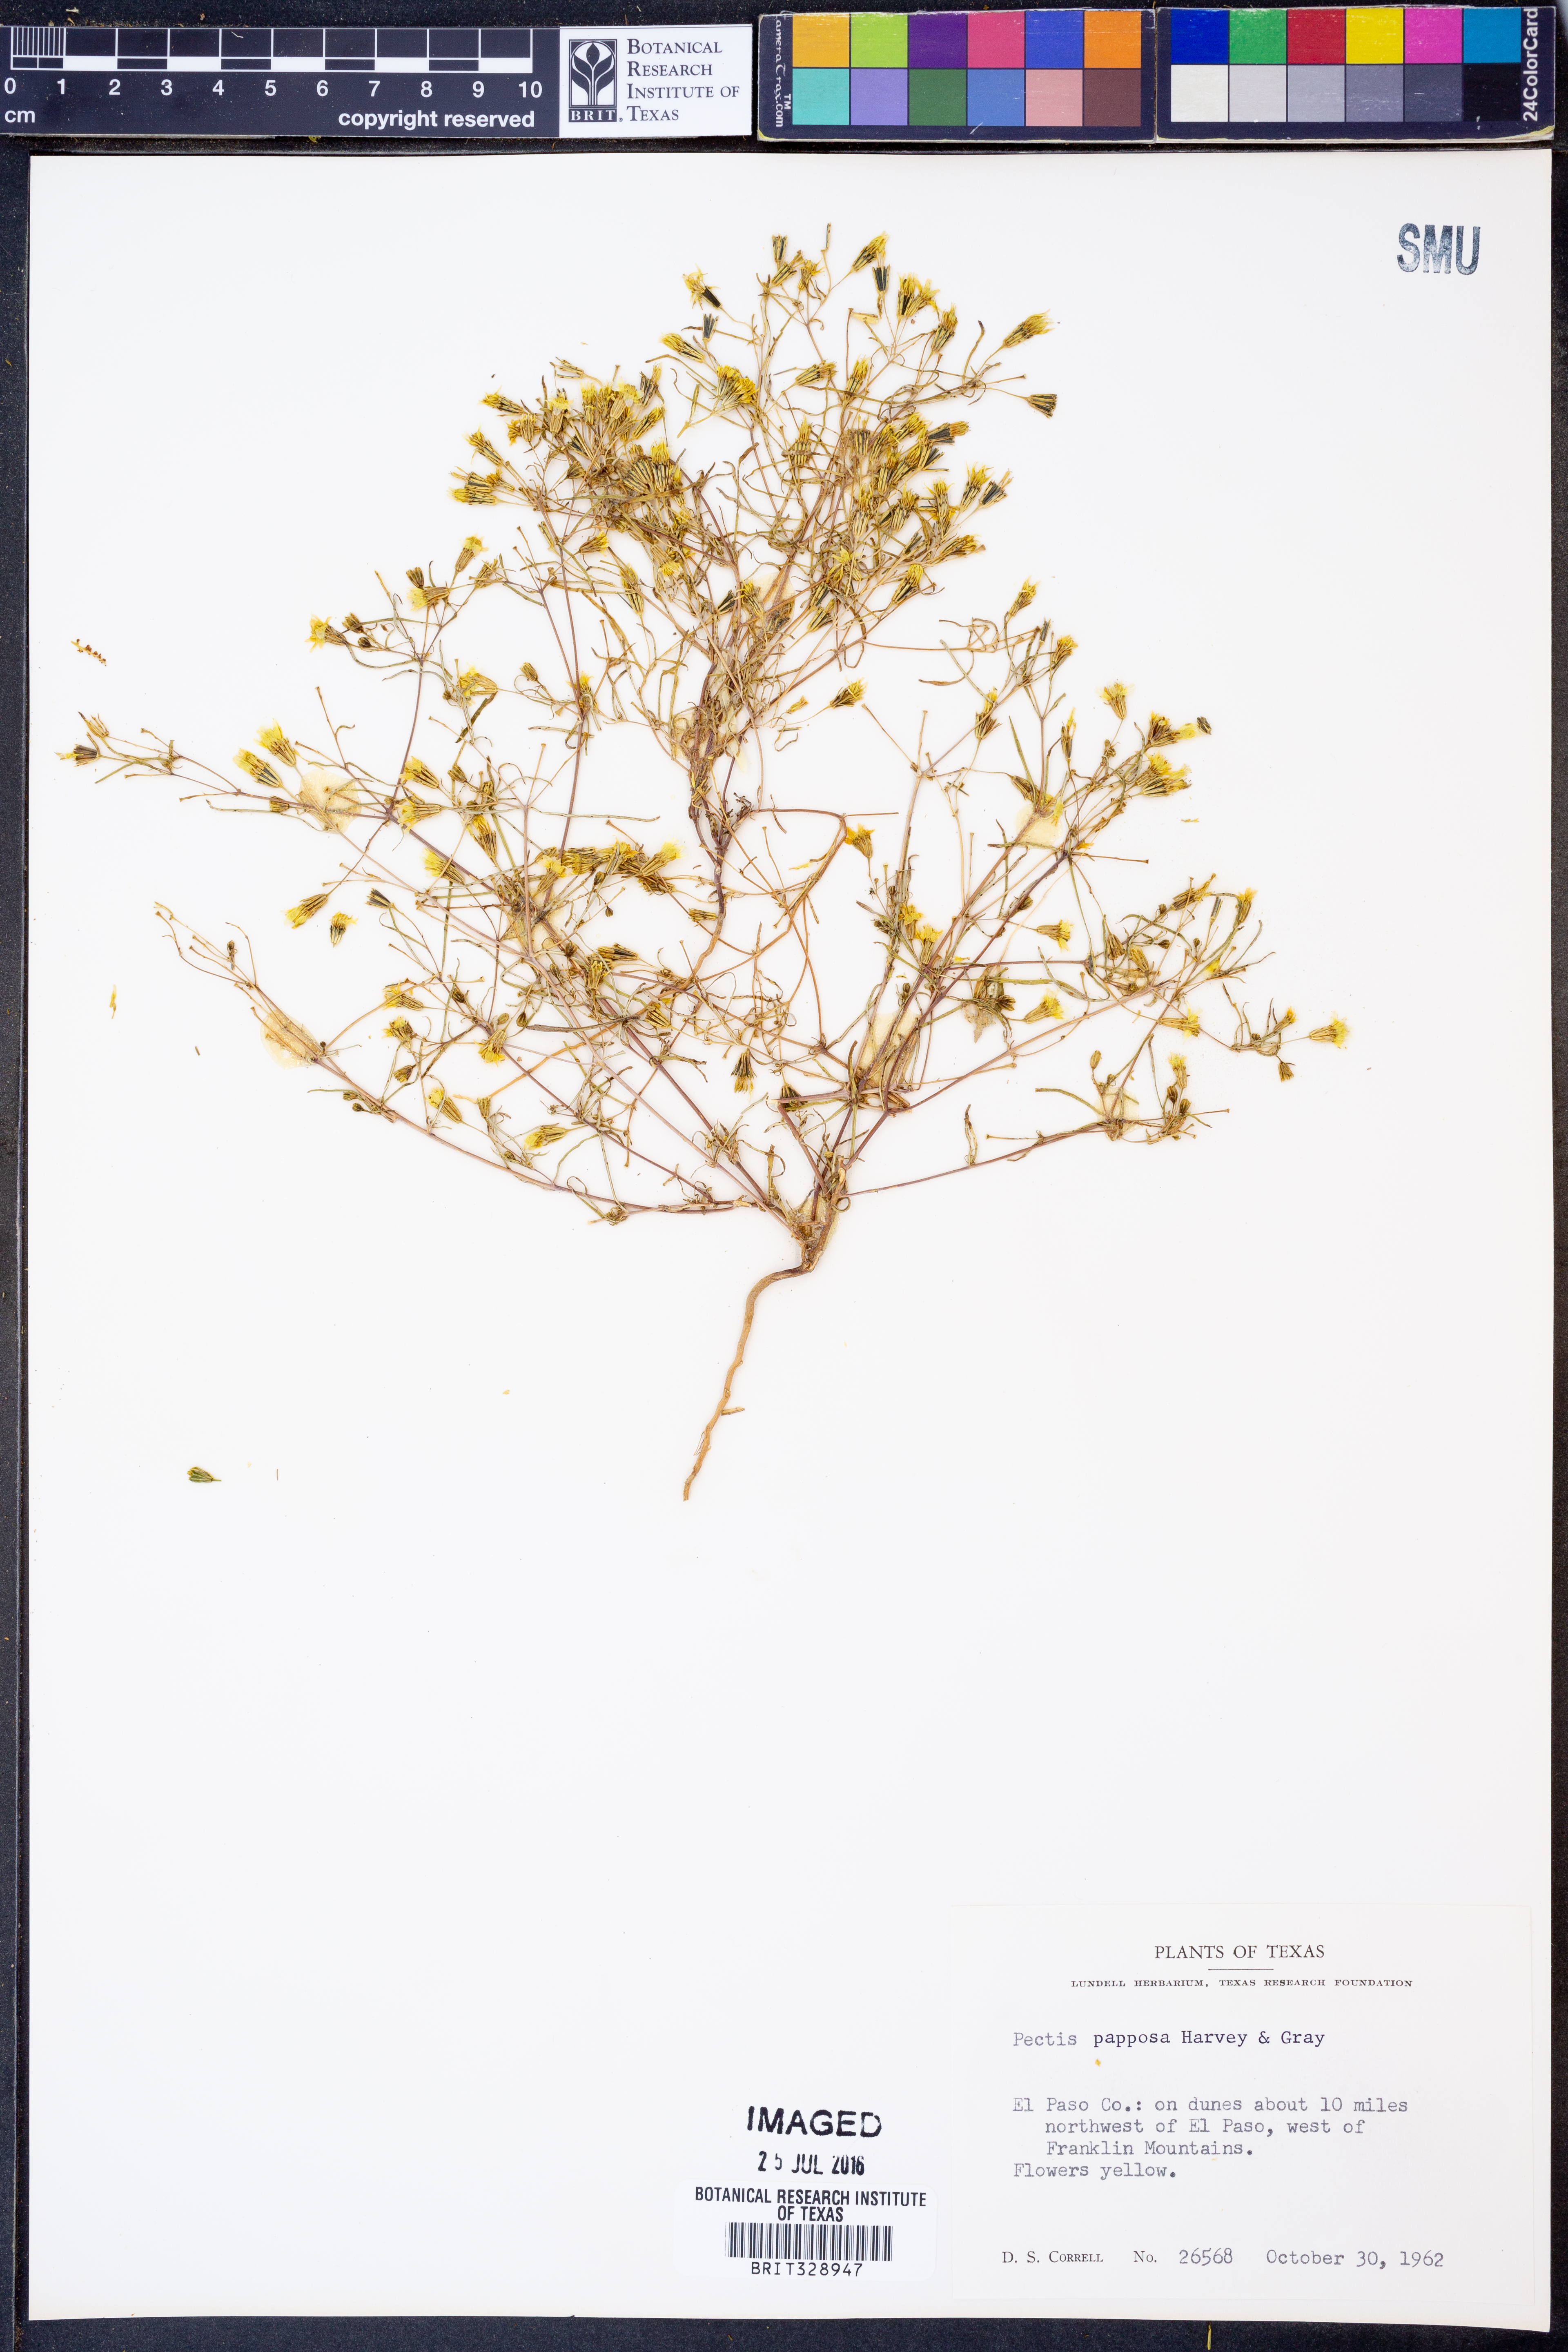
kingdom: Plantae
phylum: Tracheophyta
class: Magnoliopsida
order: Asterales
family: Asteraceae
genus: Pectis
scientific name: Pectis papposa
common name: Many-bristle chinchweed
